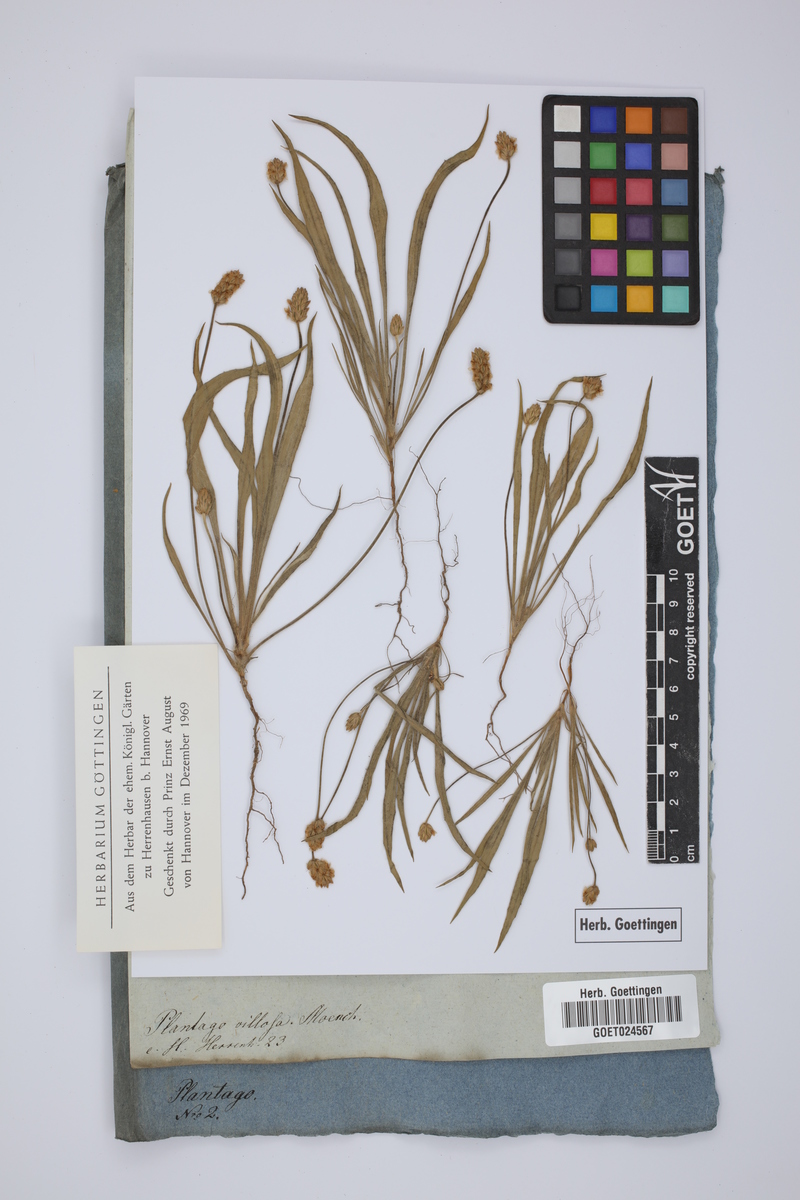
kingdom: Plantae
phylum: Tracheophyta
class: Magnoliopsida
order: Lamiales
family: Plantaginaceae
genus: Plantago
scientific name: Plantago ovata
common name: Blond plantain
